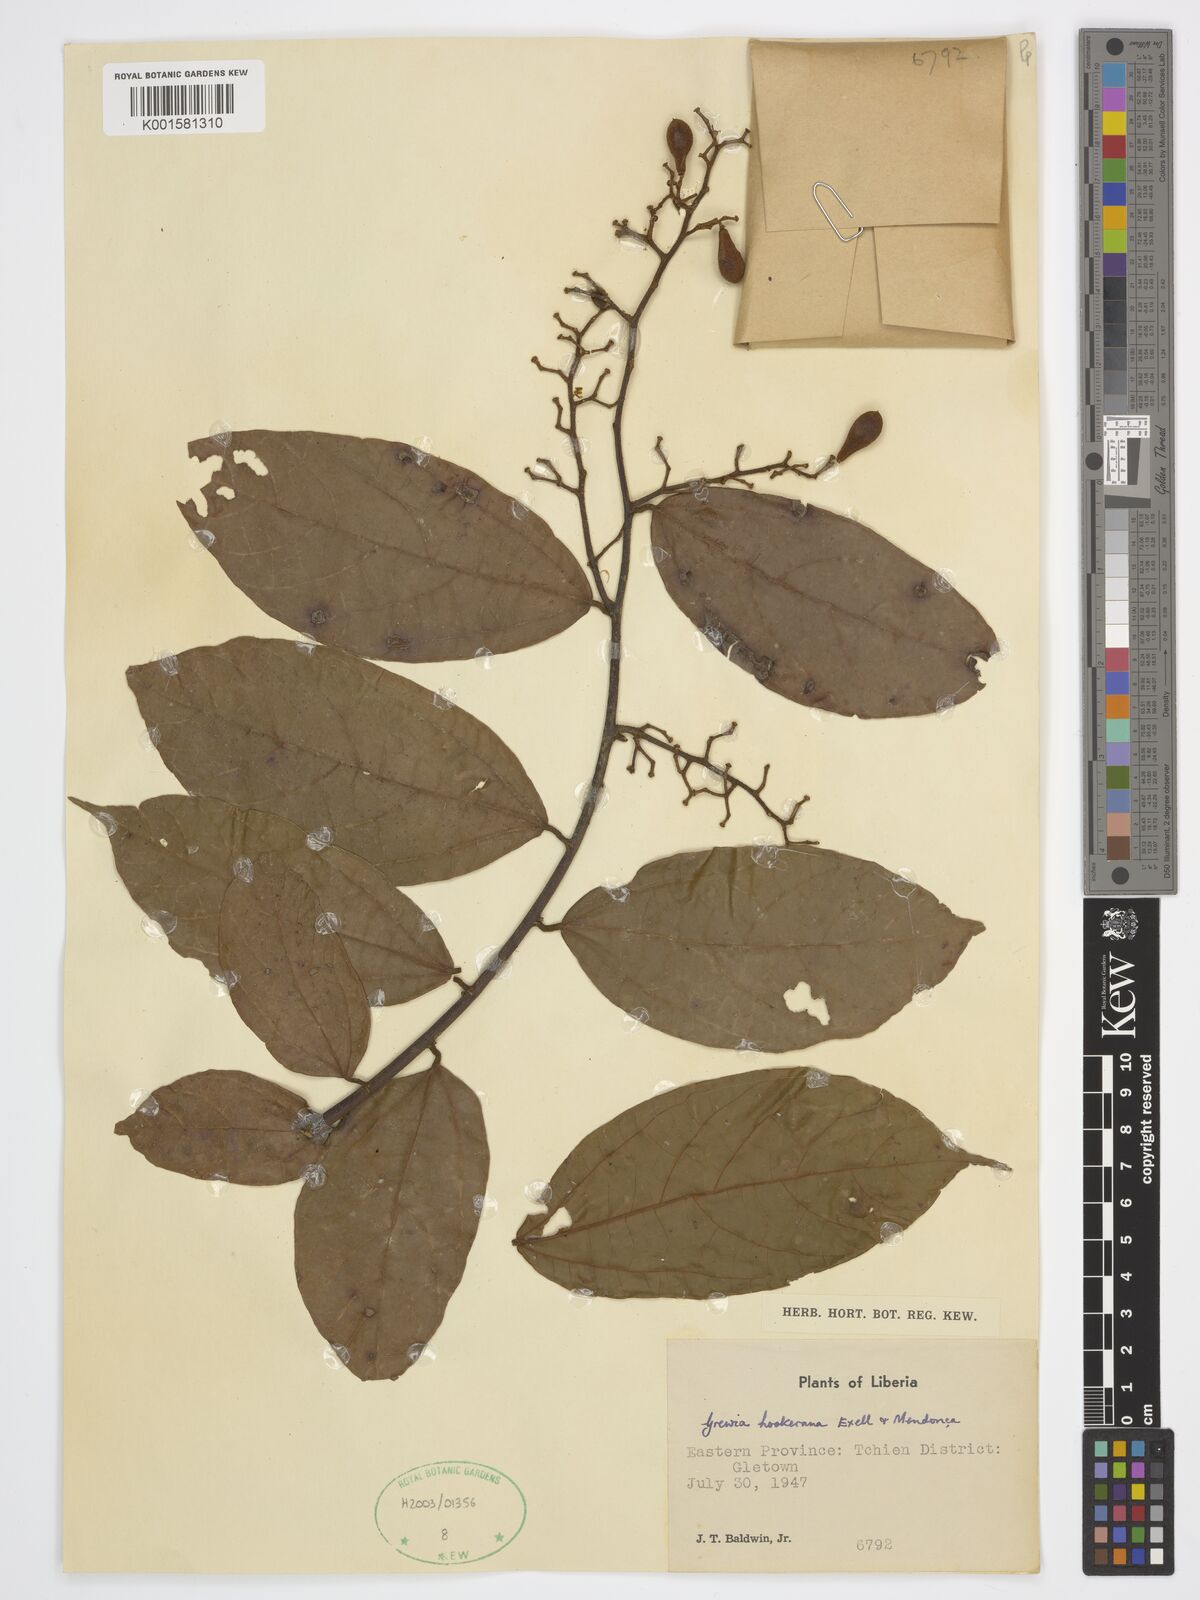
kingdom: Plantae
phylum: Tracheophyta
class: Magnoliopsida
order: Malvales
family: Malvaceae
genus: Microcos
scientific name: Microcos africana
